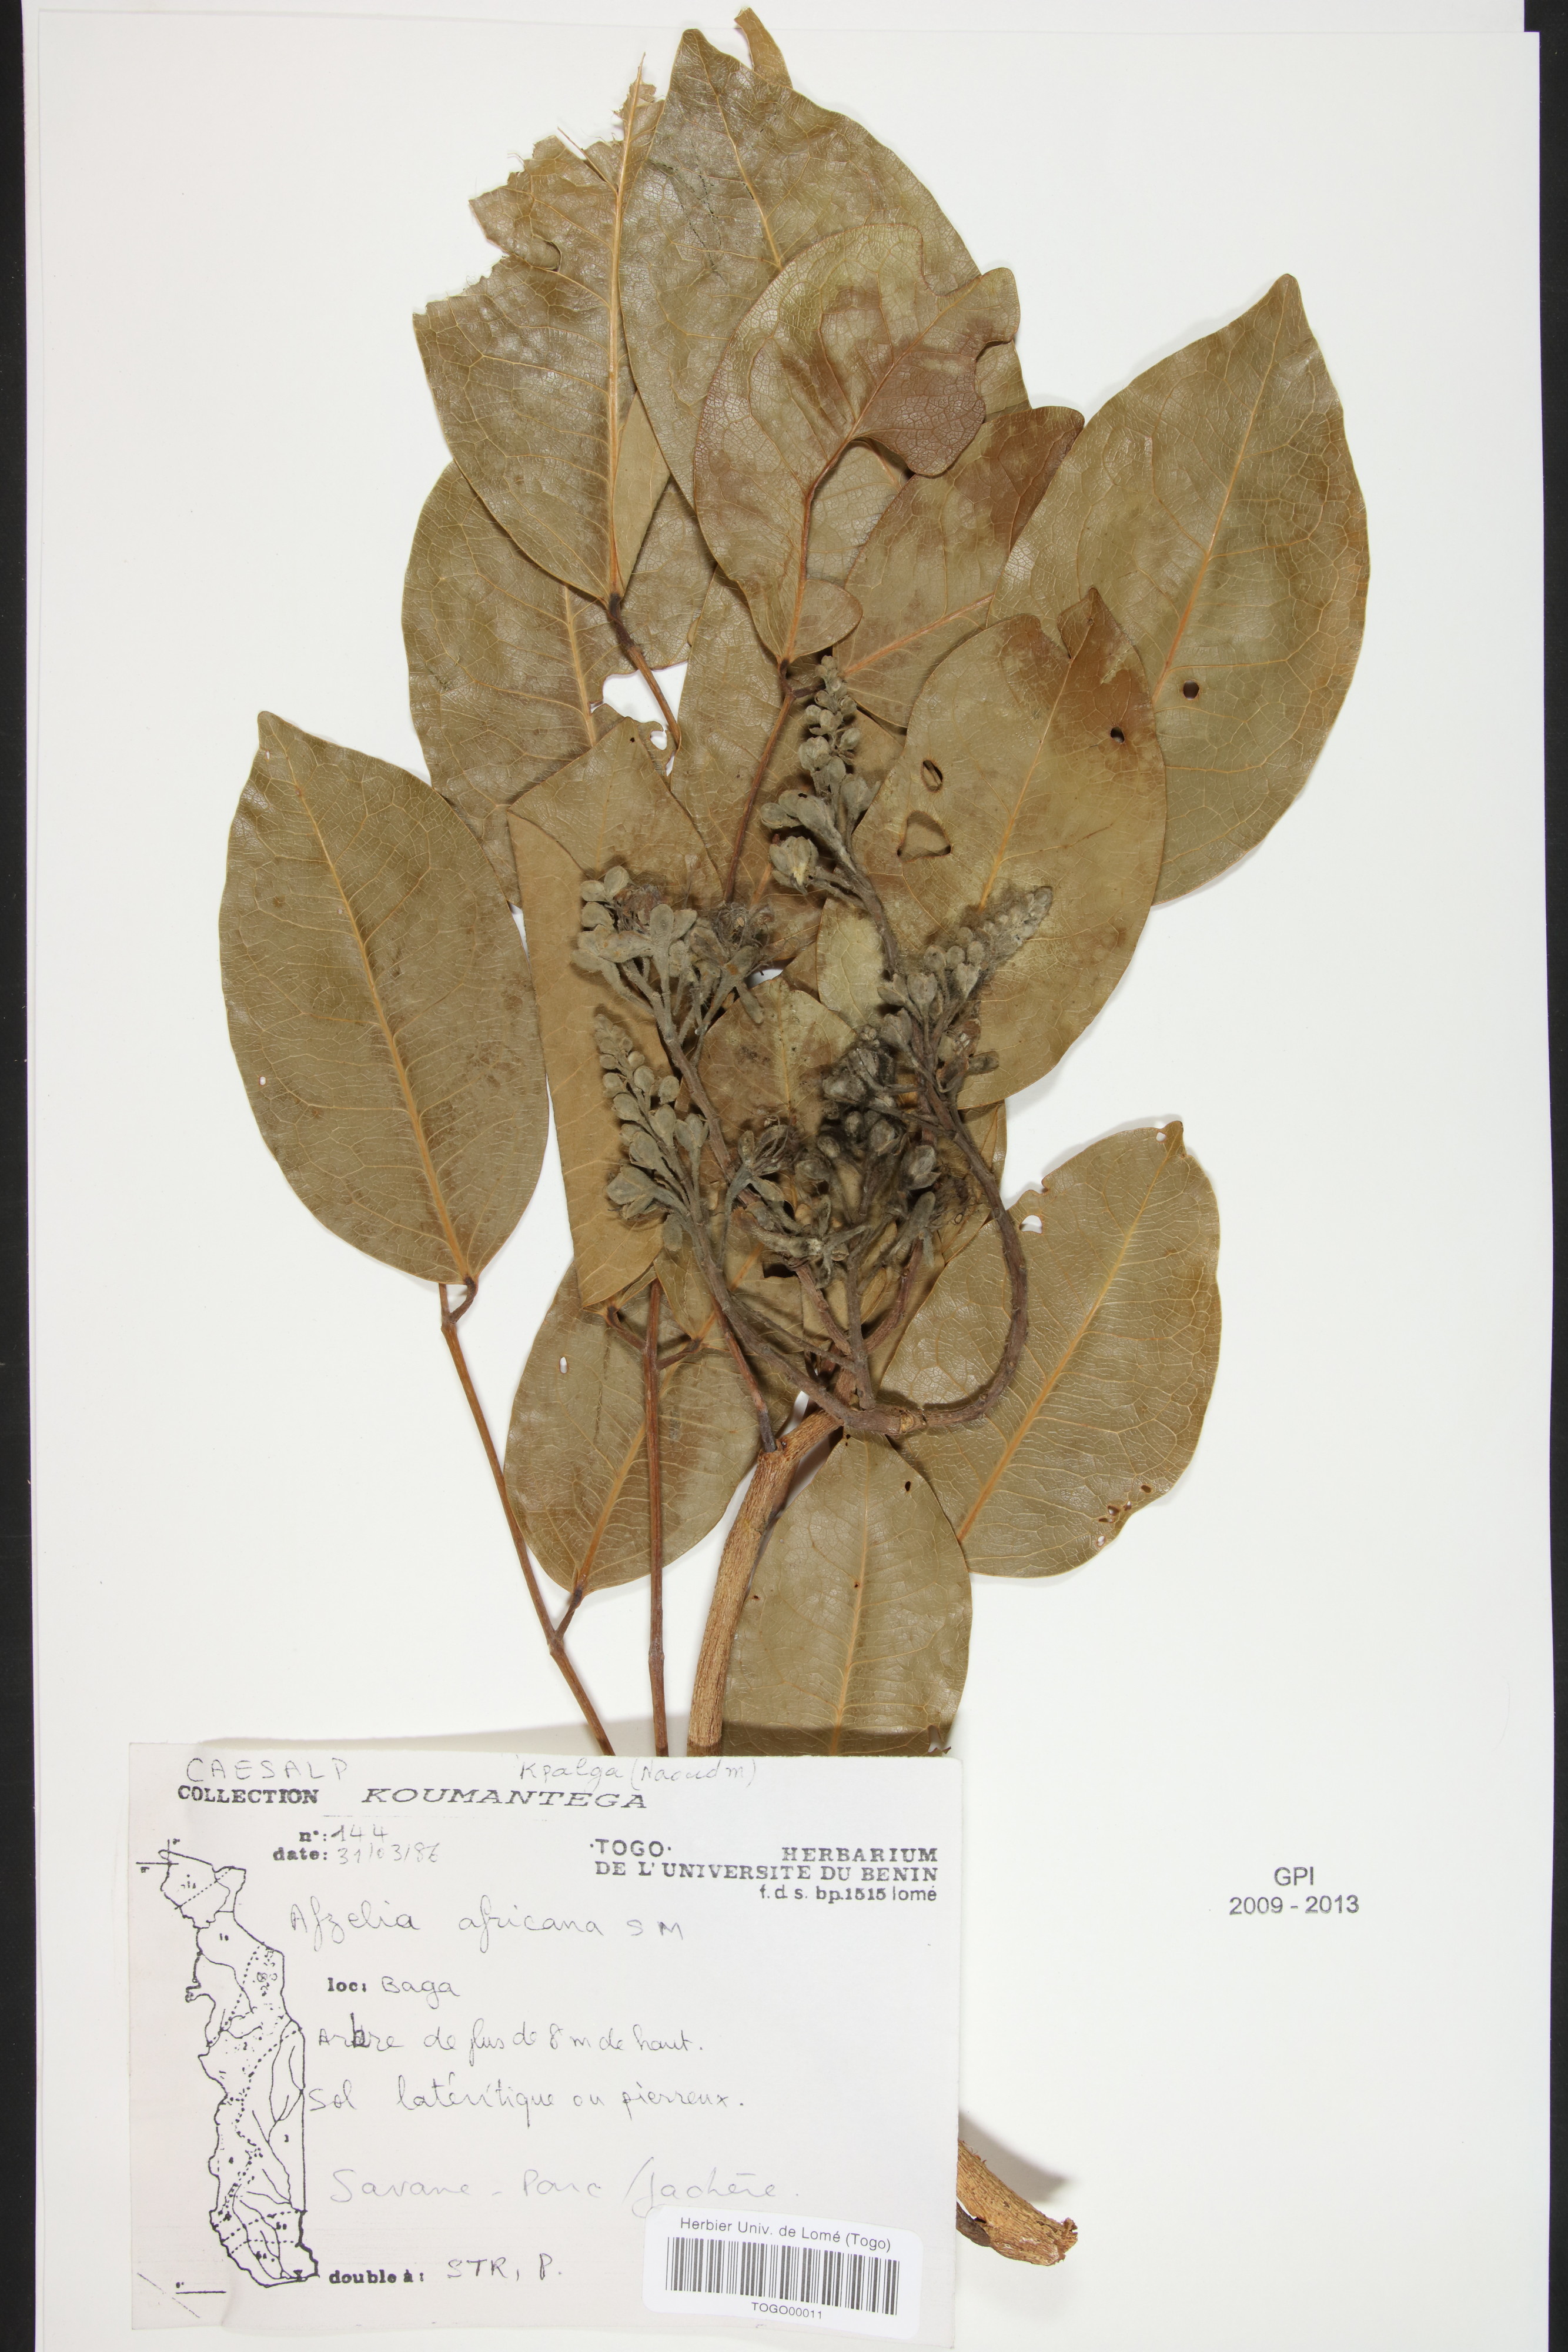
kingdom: Plantae
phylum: Tracheophyta
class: Magnoliopsida
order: Fabales
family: Fabaceae
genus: Afzelia
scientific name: Afzelia africana
